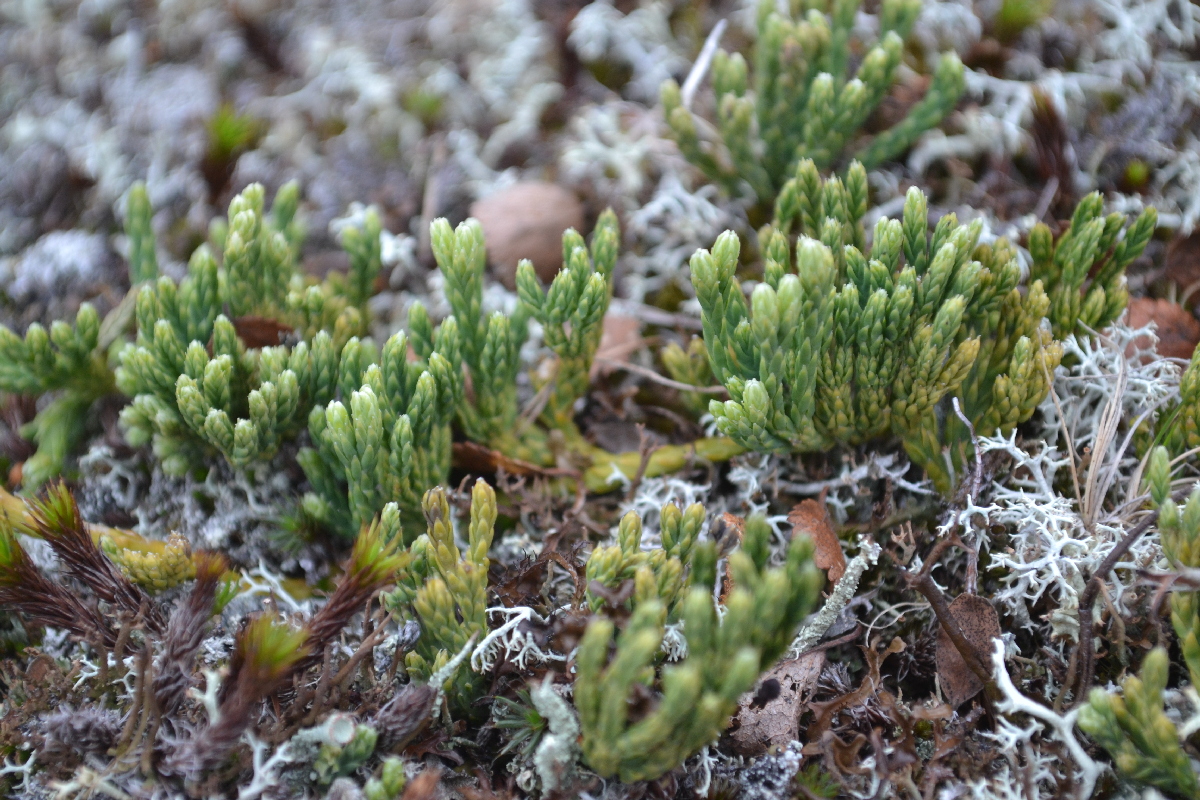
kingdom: Plantae
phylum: Tracheophyta
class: Lycopodiopsida
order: Lycopodiales
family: Lycopodiaceae
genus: Diphasiastrum
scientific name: Diphasiastrum alpinum
